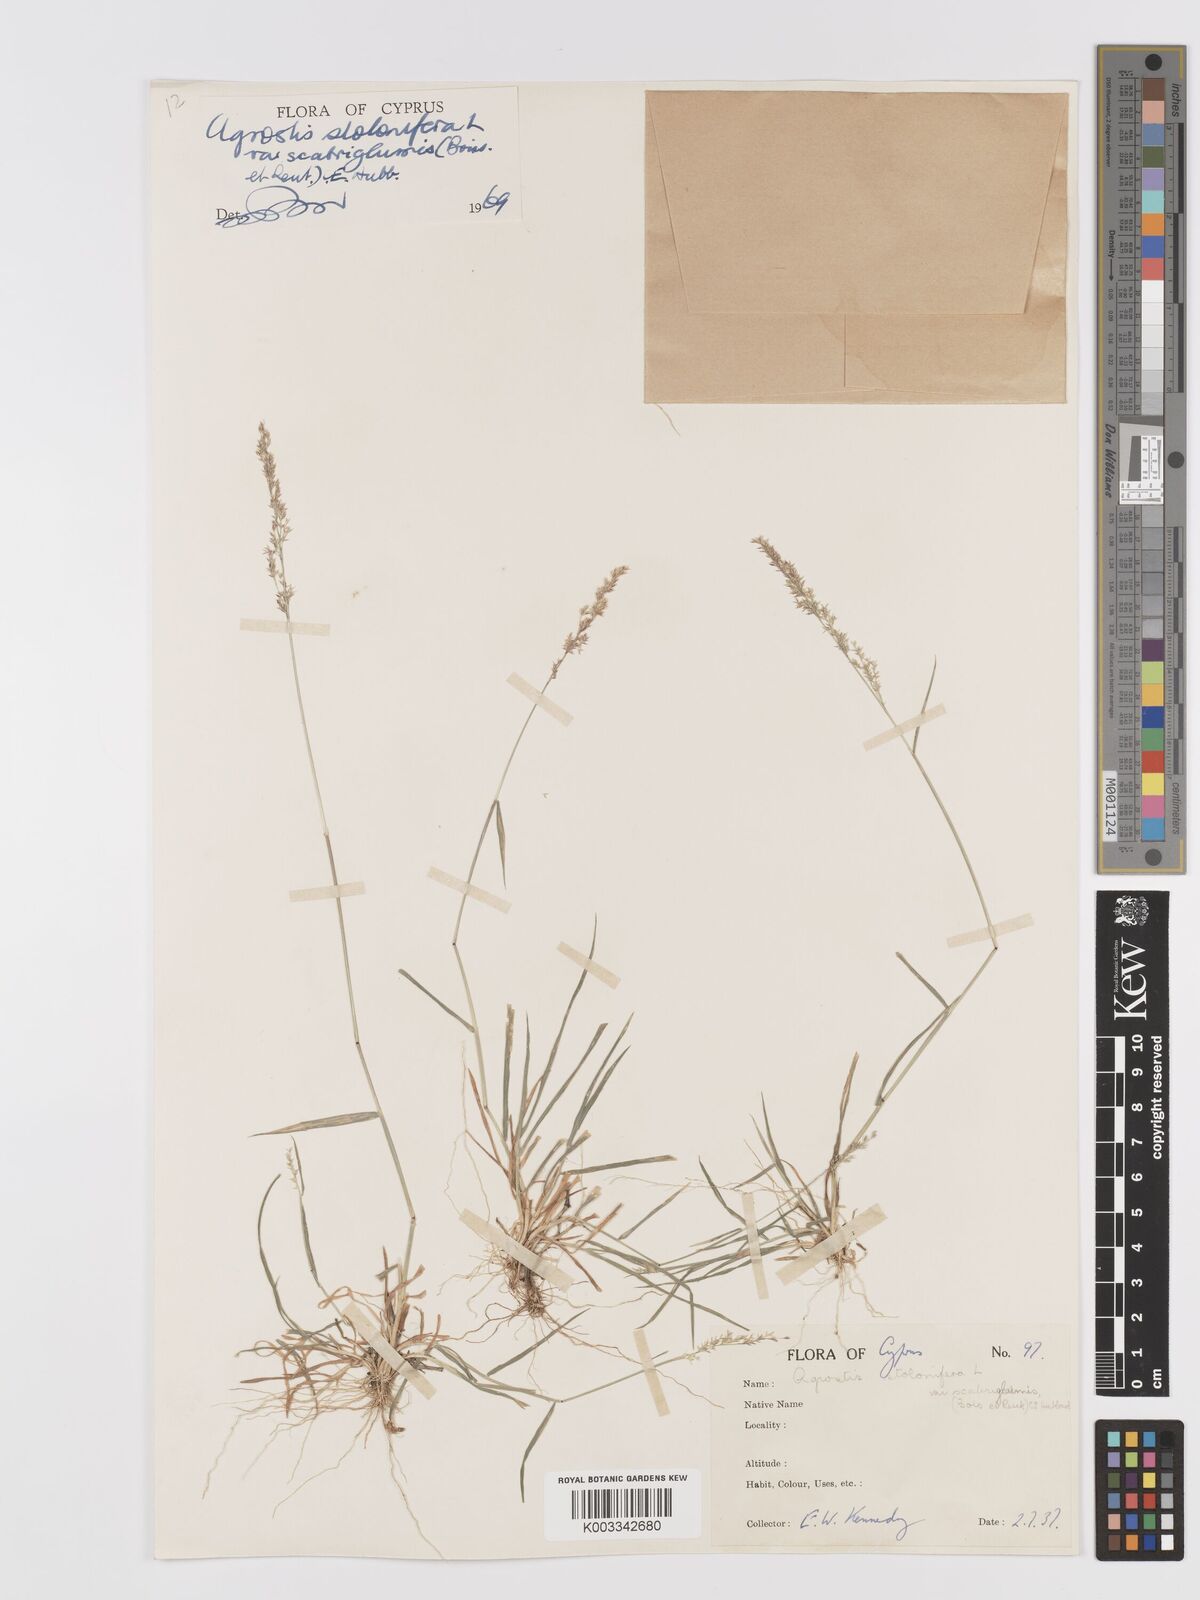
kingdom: Plantae
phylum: Tracheophyta
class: Liliopsida
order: Poales
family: Poaceae
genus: Agrostis
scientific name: Agrostis gigantea
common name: Black bent
